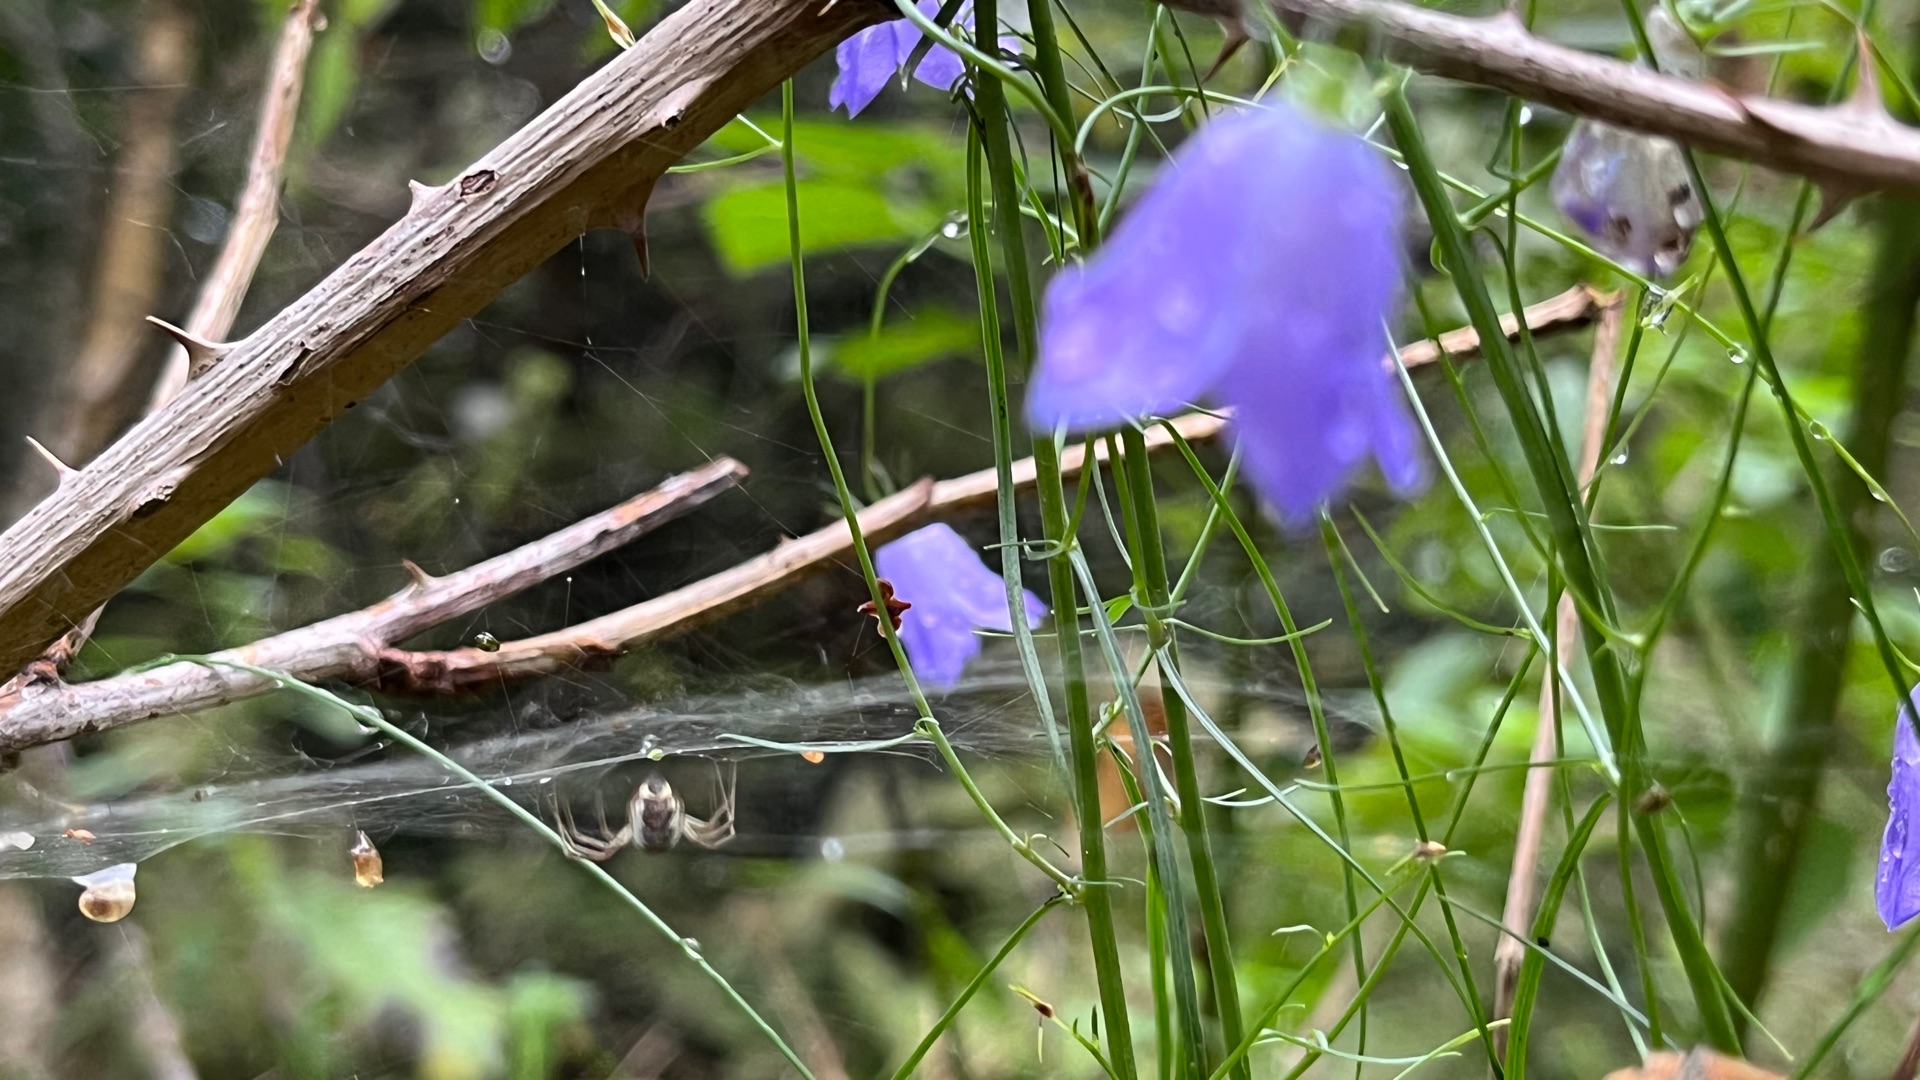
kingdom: Plantae
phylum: Tracheophyta
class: Magnoliopsida
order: Asterales
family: Campanulaceae
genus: Campanula
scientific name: Campanula rotundifolia
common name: Liden klokke
